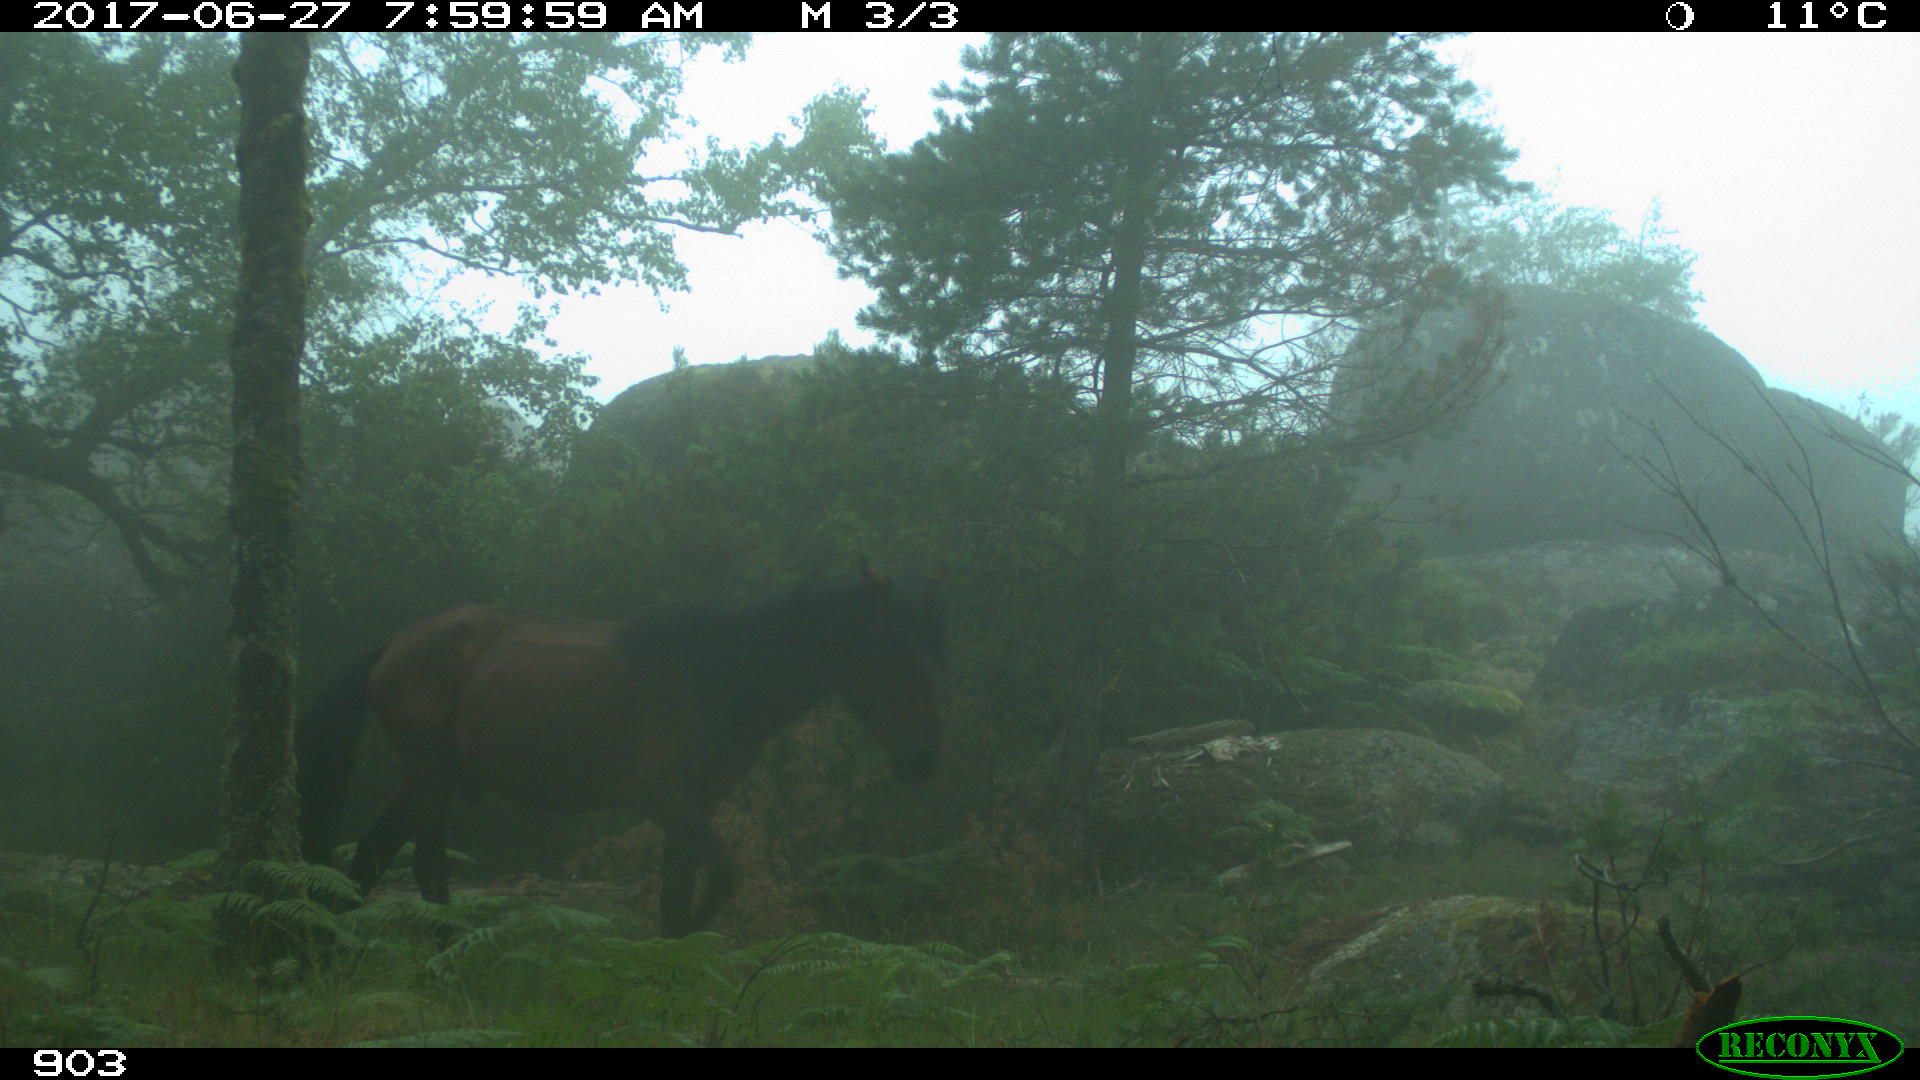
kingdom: Animalia
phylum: Chordata
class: Mammalia
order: Perissodactyla
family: Equidae
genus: Equus
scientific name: Equus caballus
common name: Horse
